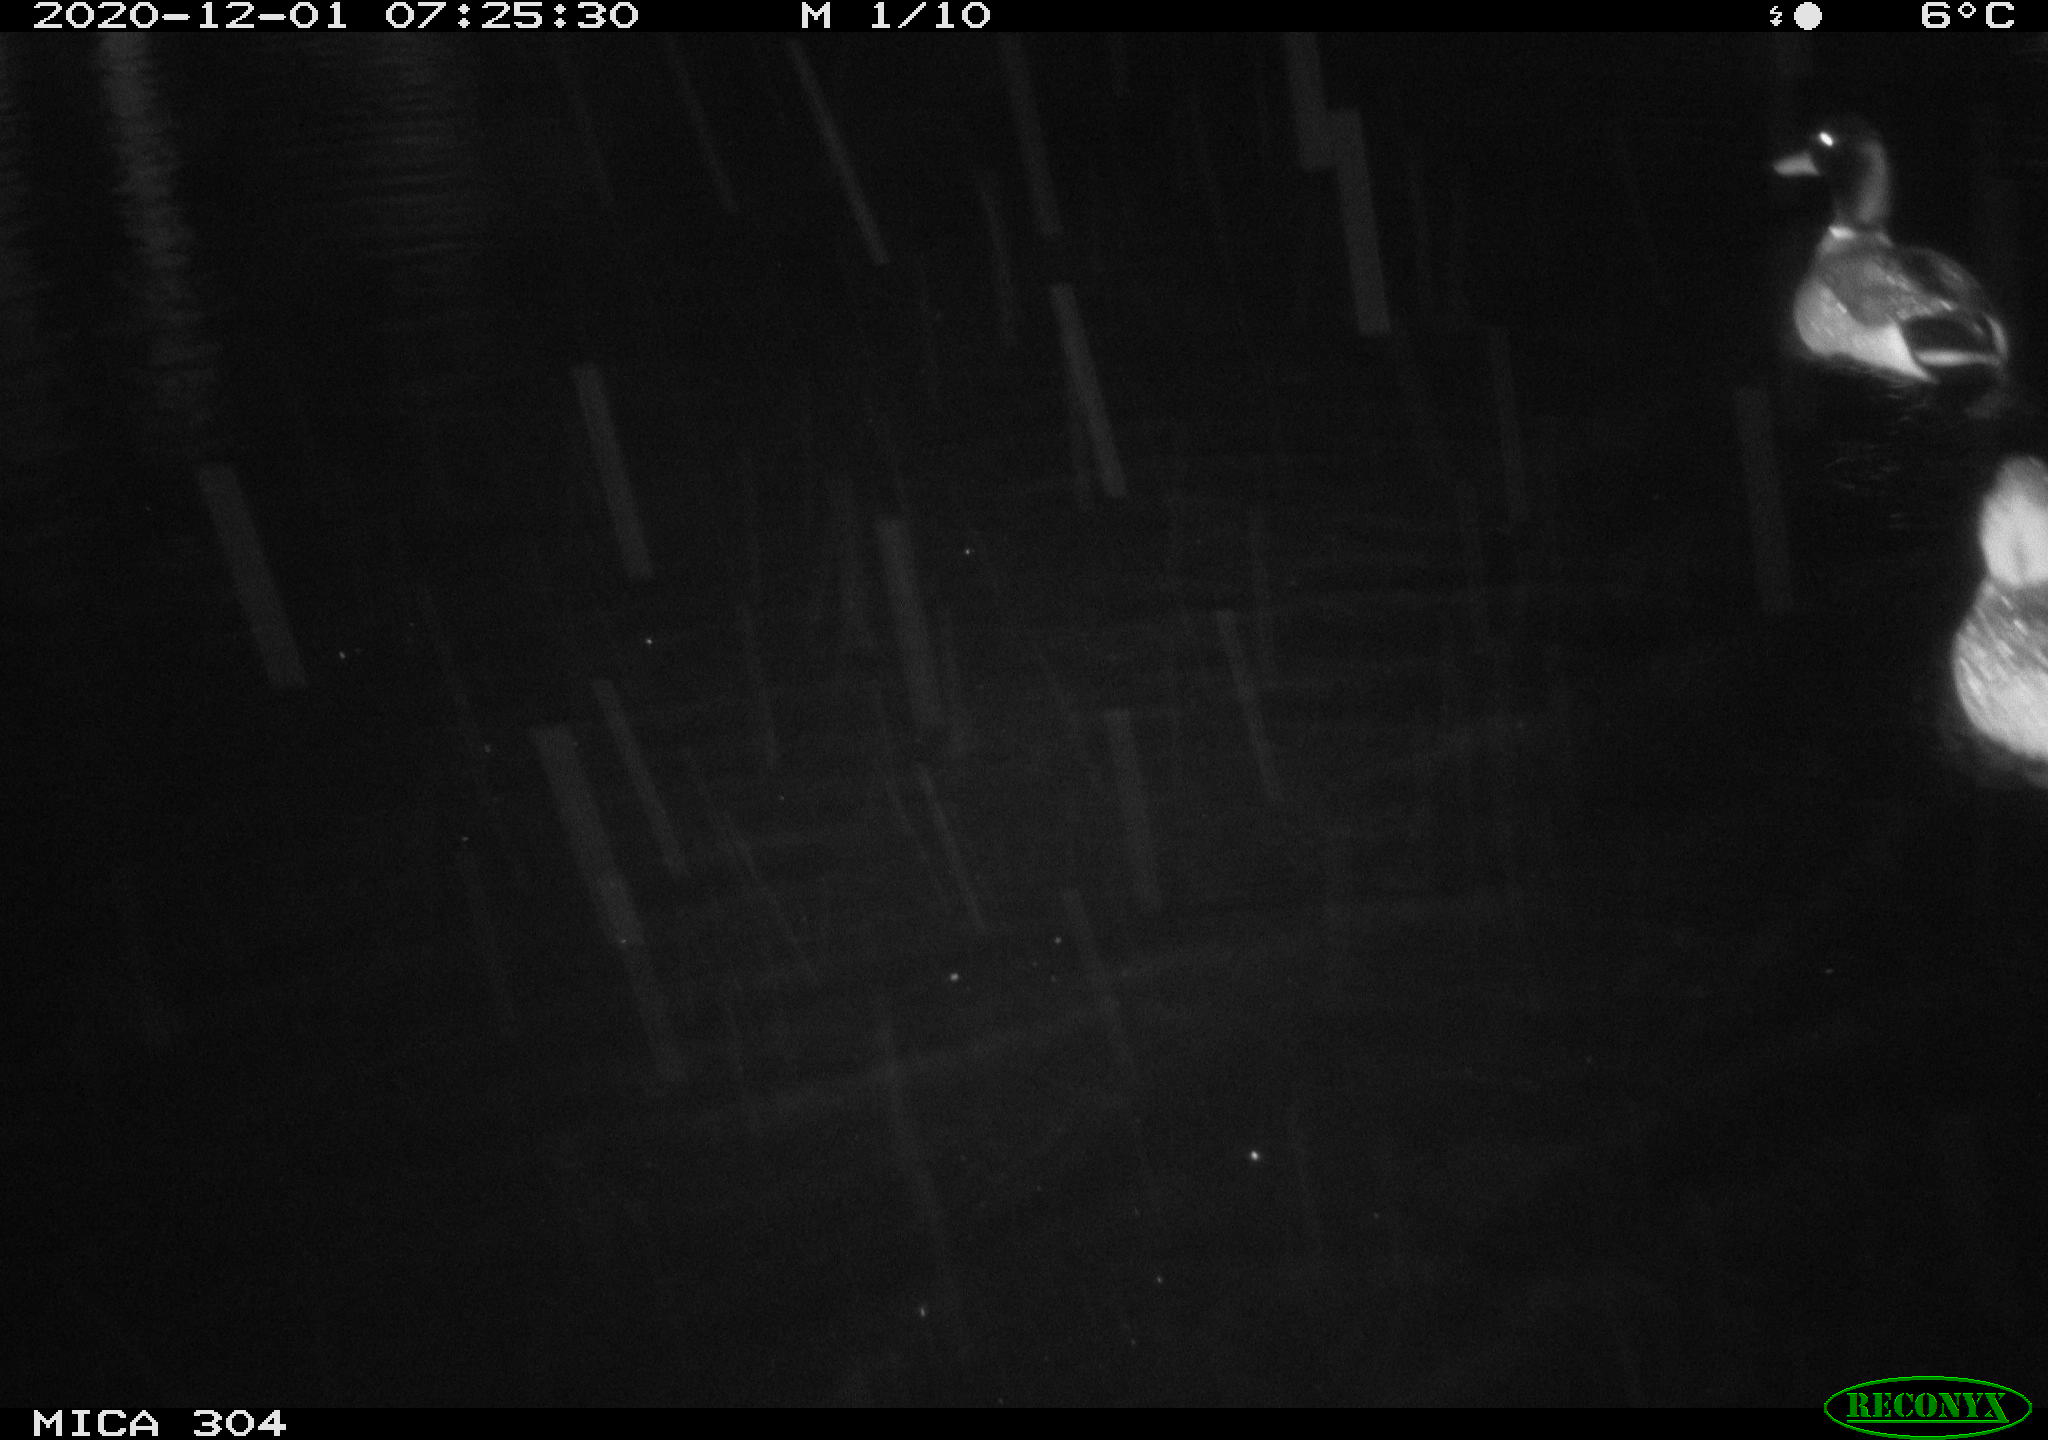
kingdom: Animalia
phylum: Chordata
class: Aves
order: Anseriformes
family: Anatidae
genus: Anas
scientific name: Anas platyrhynchos
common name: Mallard
